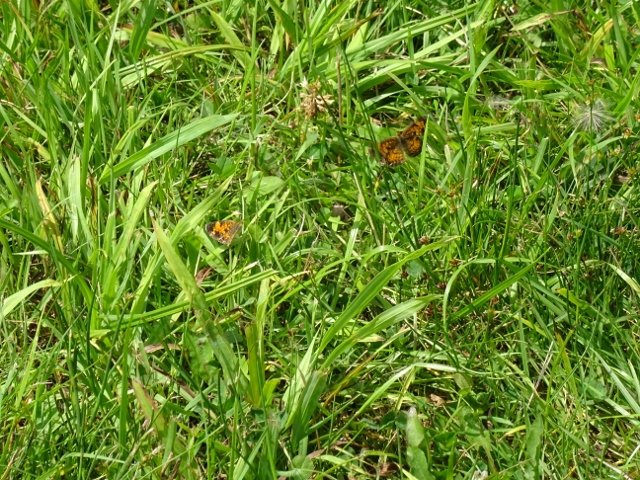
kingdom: Animalia
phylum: Arthropoda
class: Insecta
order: Lepidoptera
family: Nymphalidae
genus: Phyciodes
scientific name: Phyciodes
